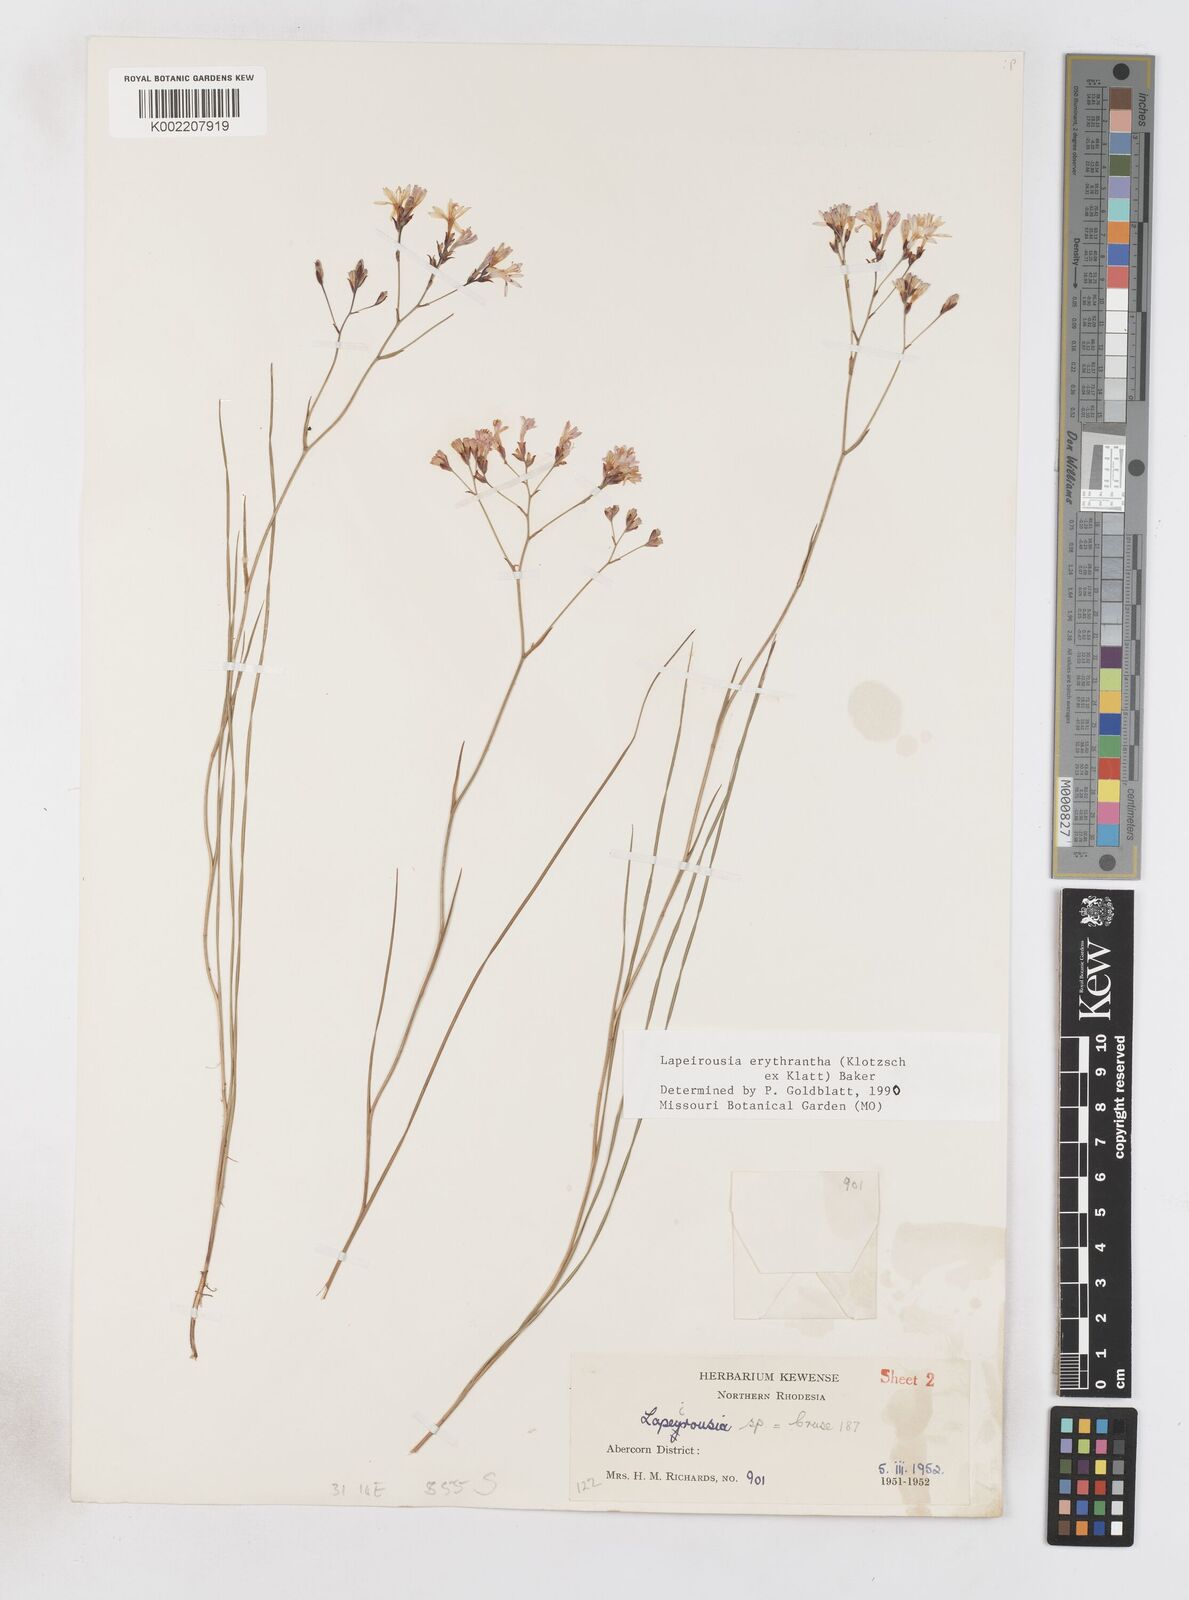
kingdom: Plantae
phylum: Tracheophyta
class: Liliopsida
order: Asparagales
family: Iridaceae
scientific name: Iridaceae
